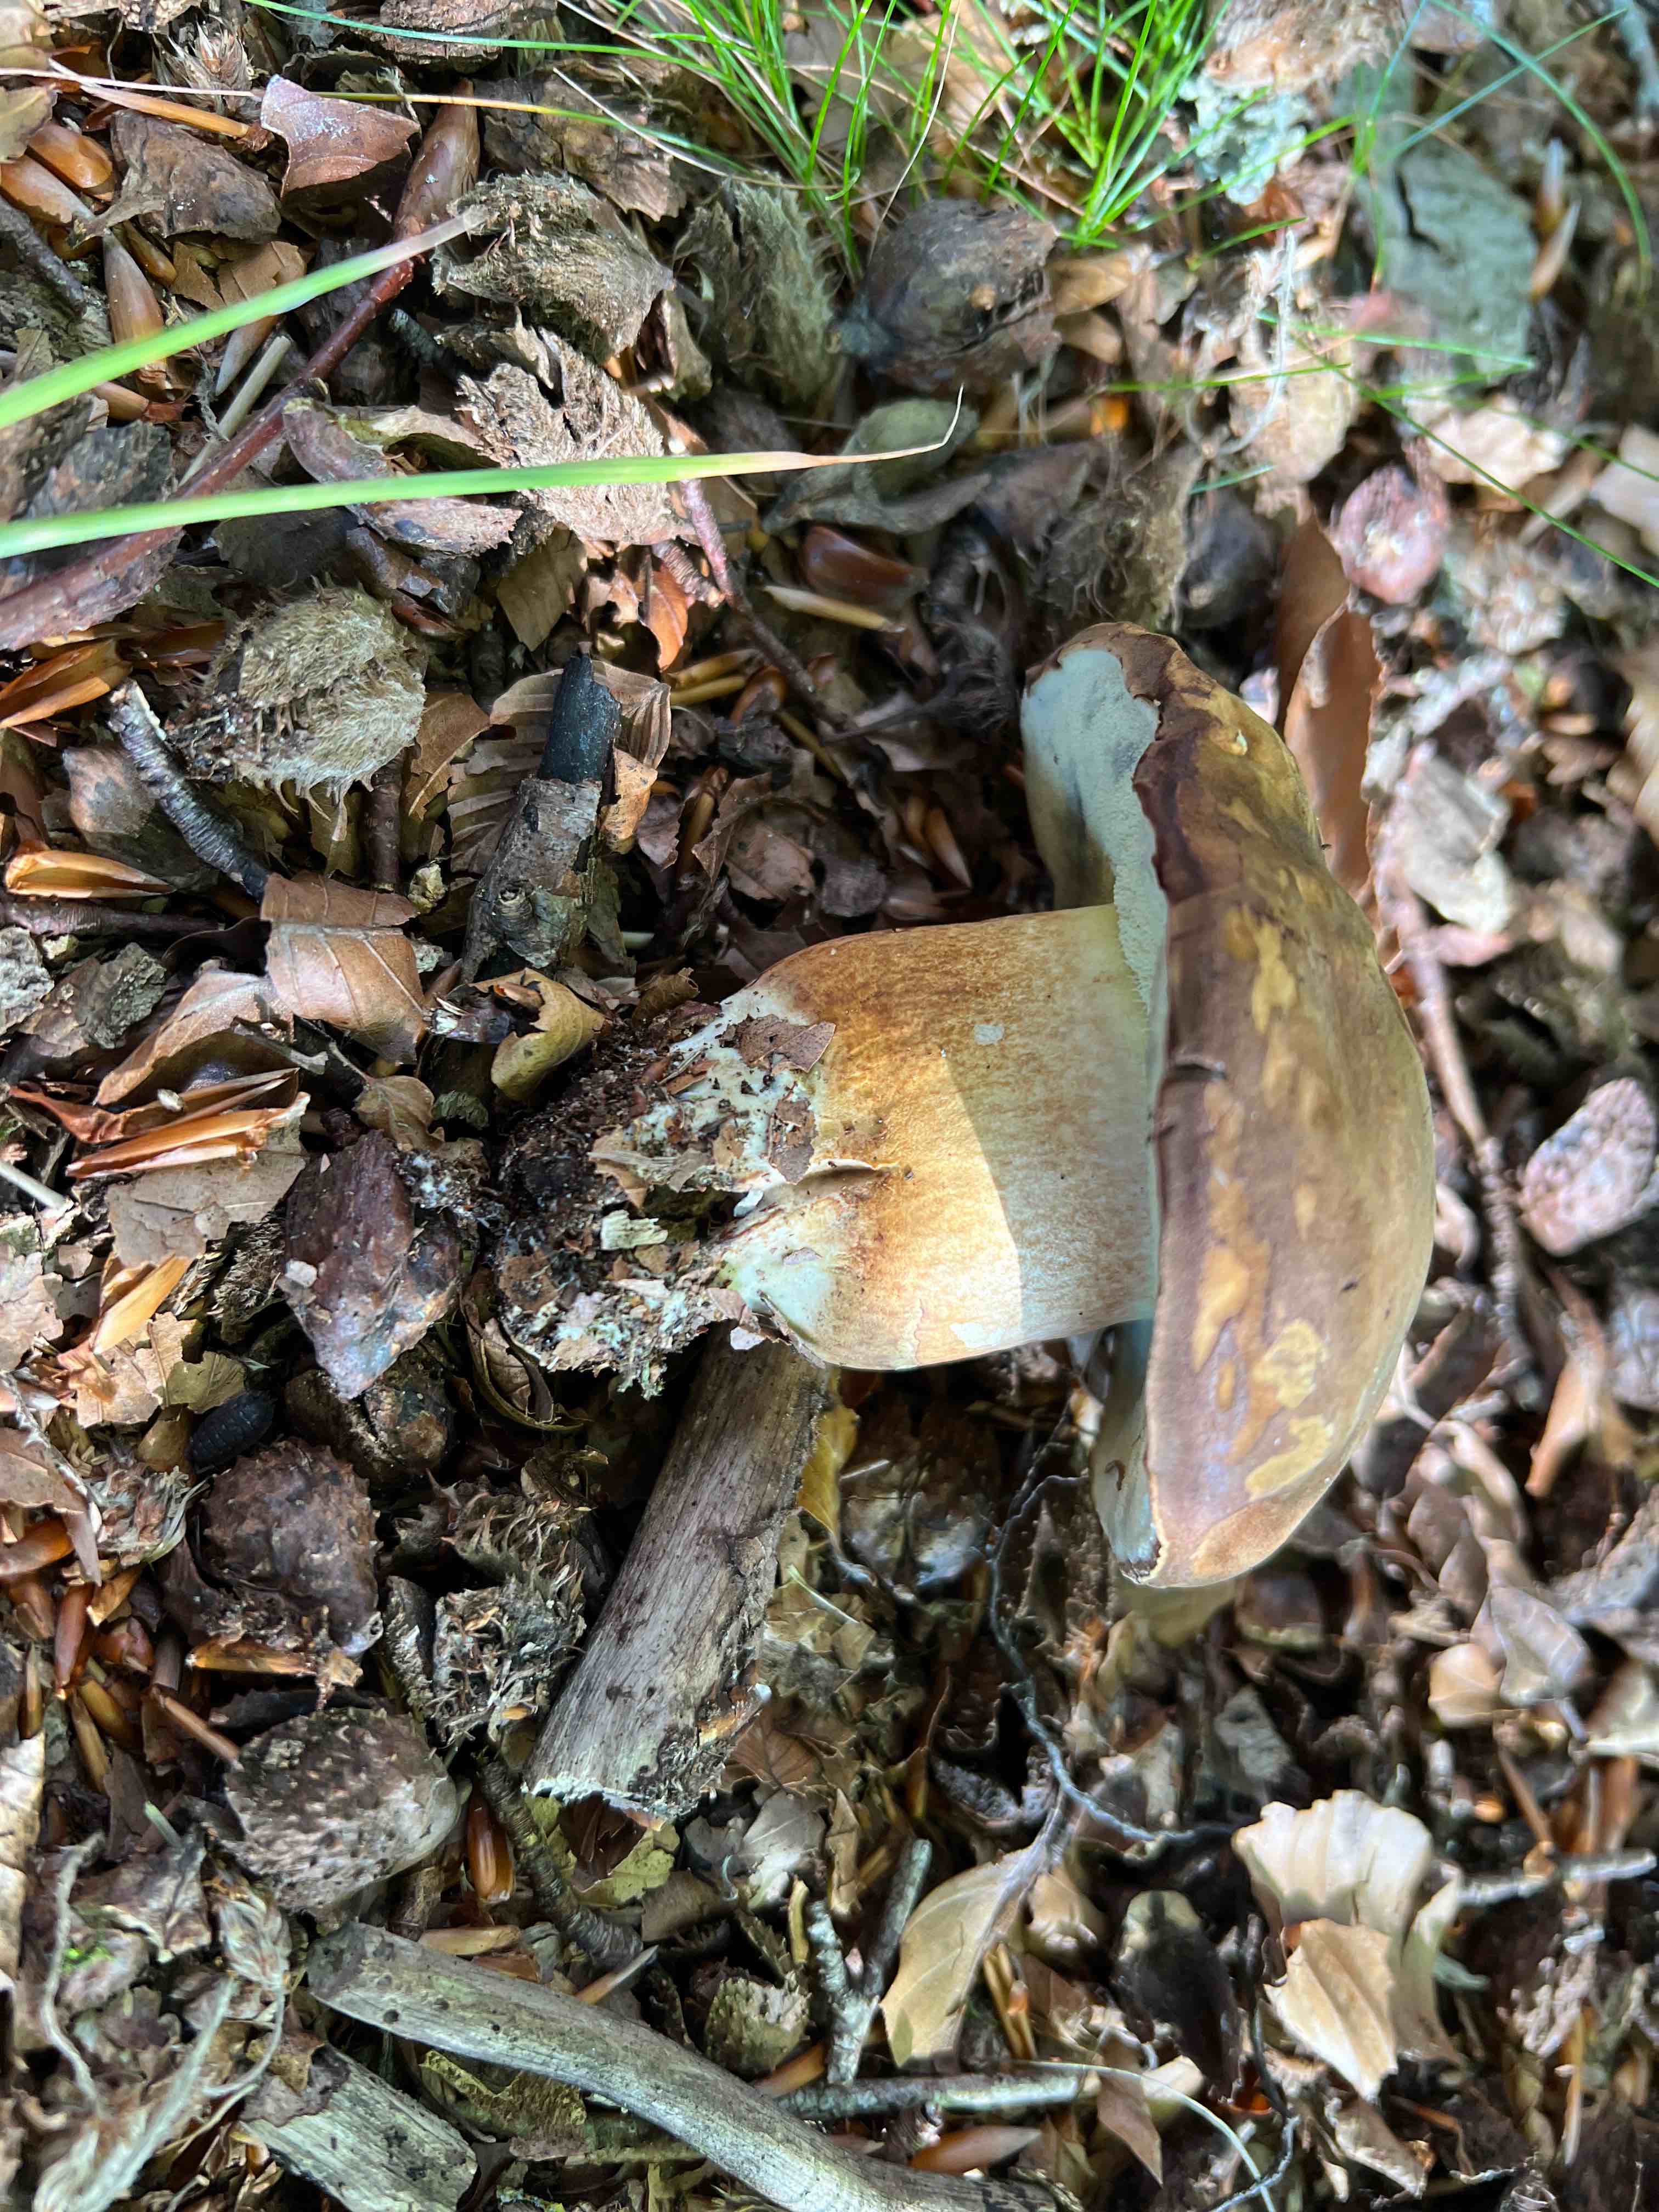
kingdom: Fungi
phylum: Basidiomycota
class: Agaricomycetes
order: Boletales
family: Boletaceae
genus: Imleria
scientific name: Imleria badia
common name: brunstokket rørhat
